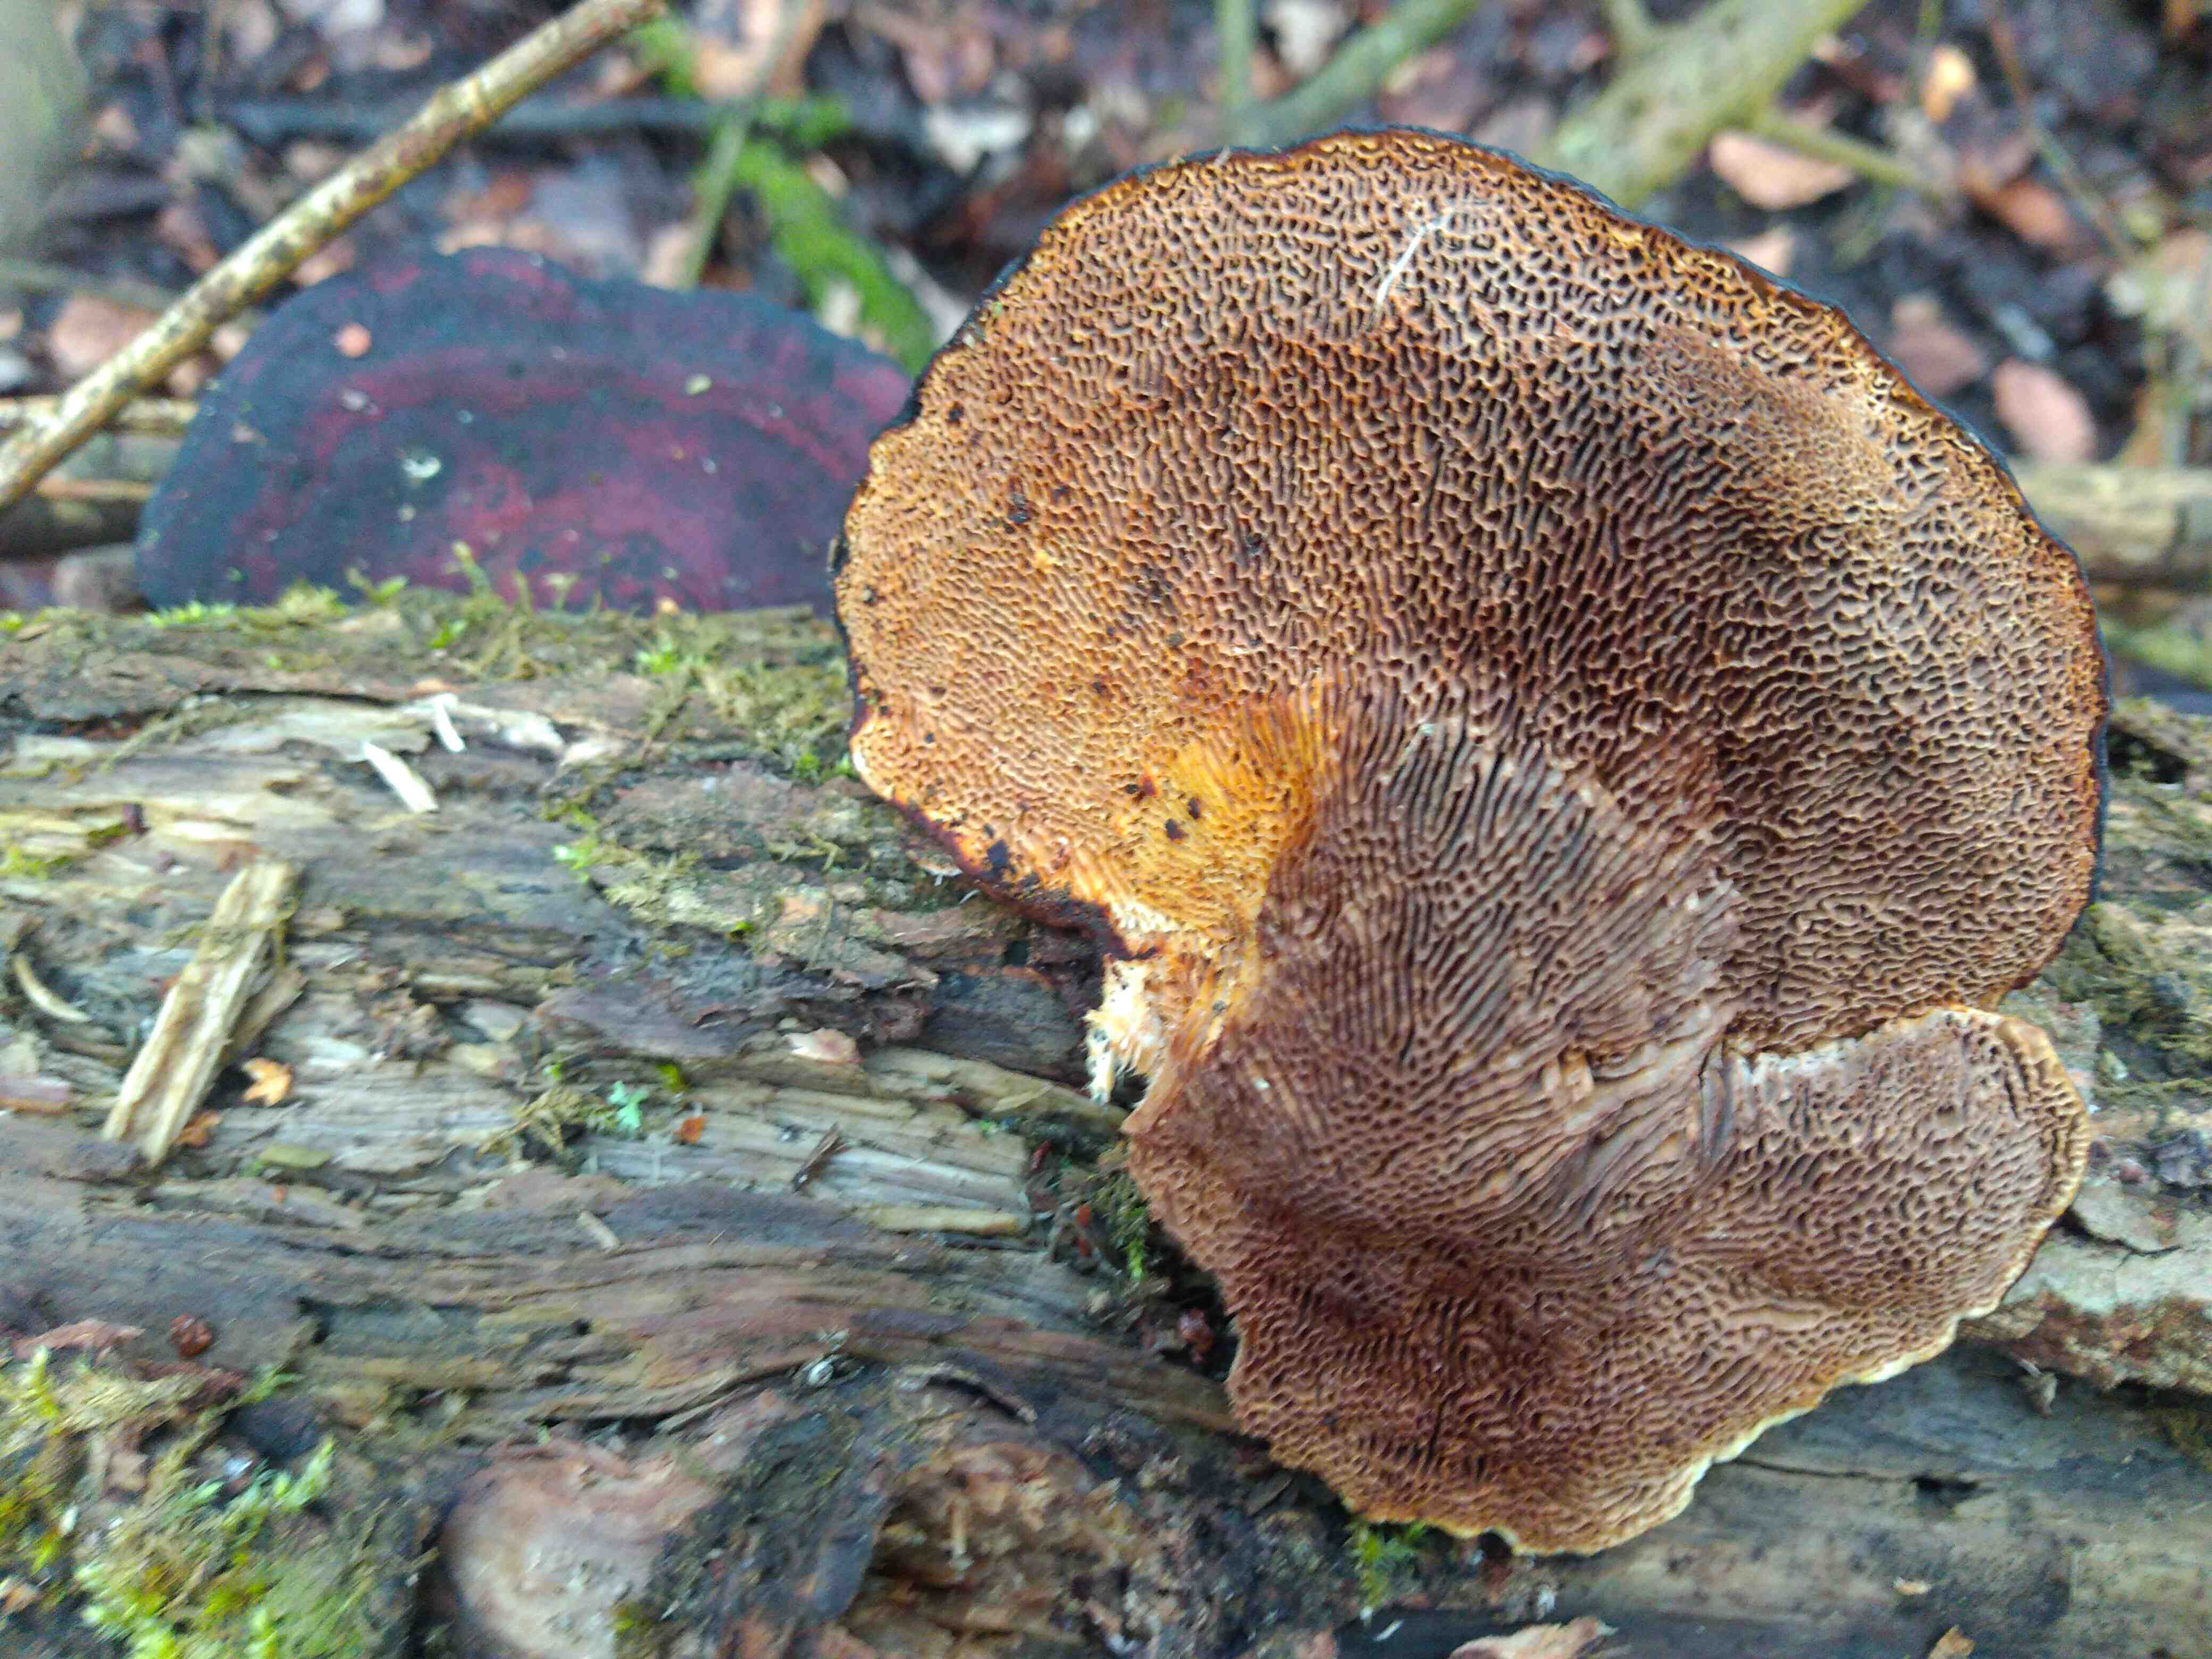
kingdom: Fungi
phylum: Basidiomycota
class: Agaricomycetes
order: Polyporales
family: Polyporaceae
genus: Daedaleopsis
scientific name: Daedaleopsis confragosa
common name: rødmende læderporesvamp
